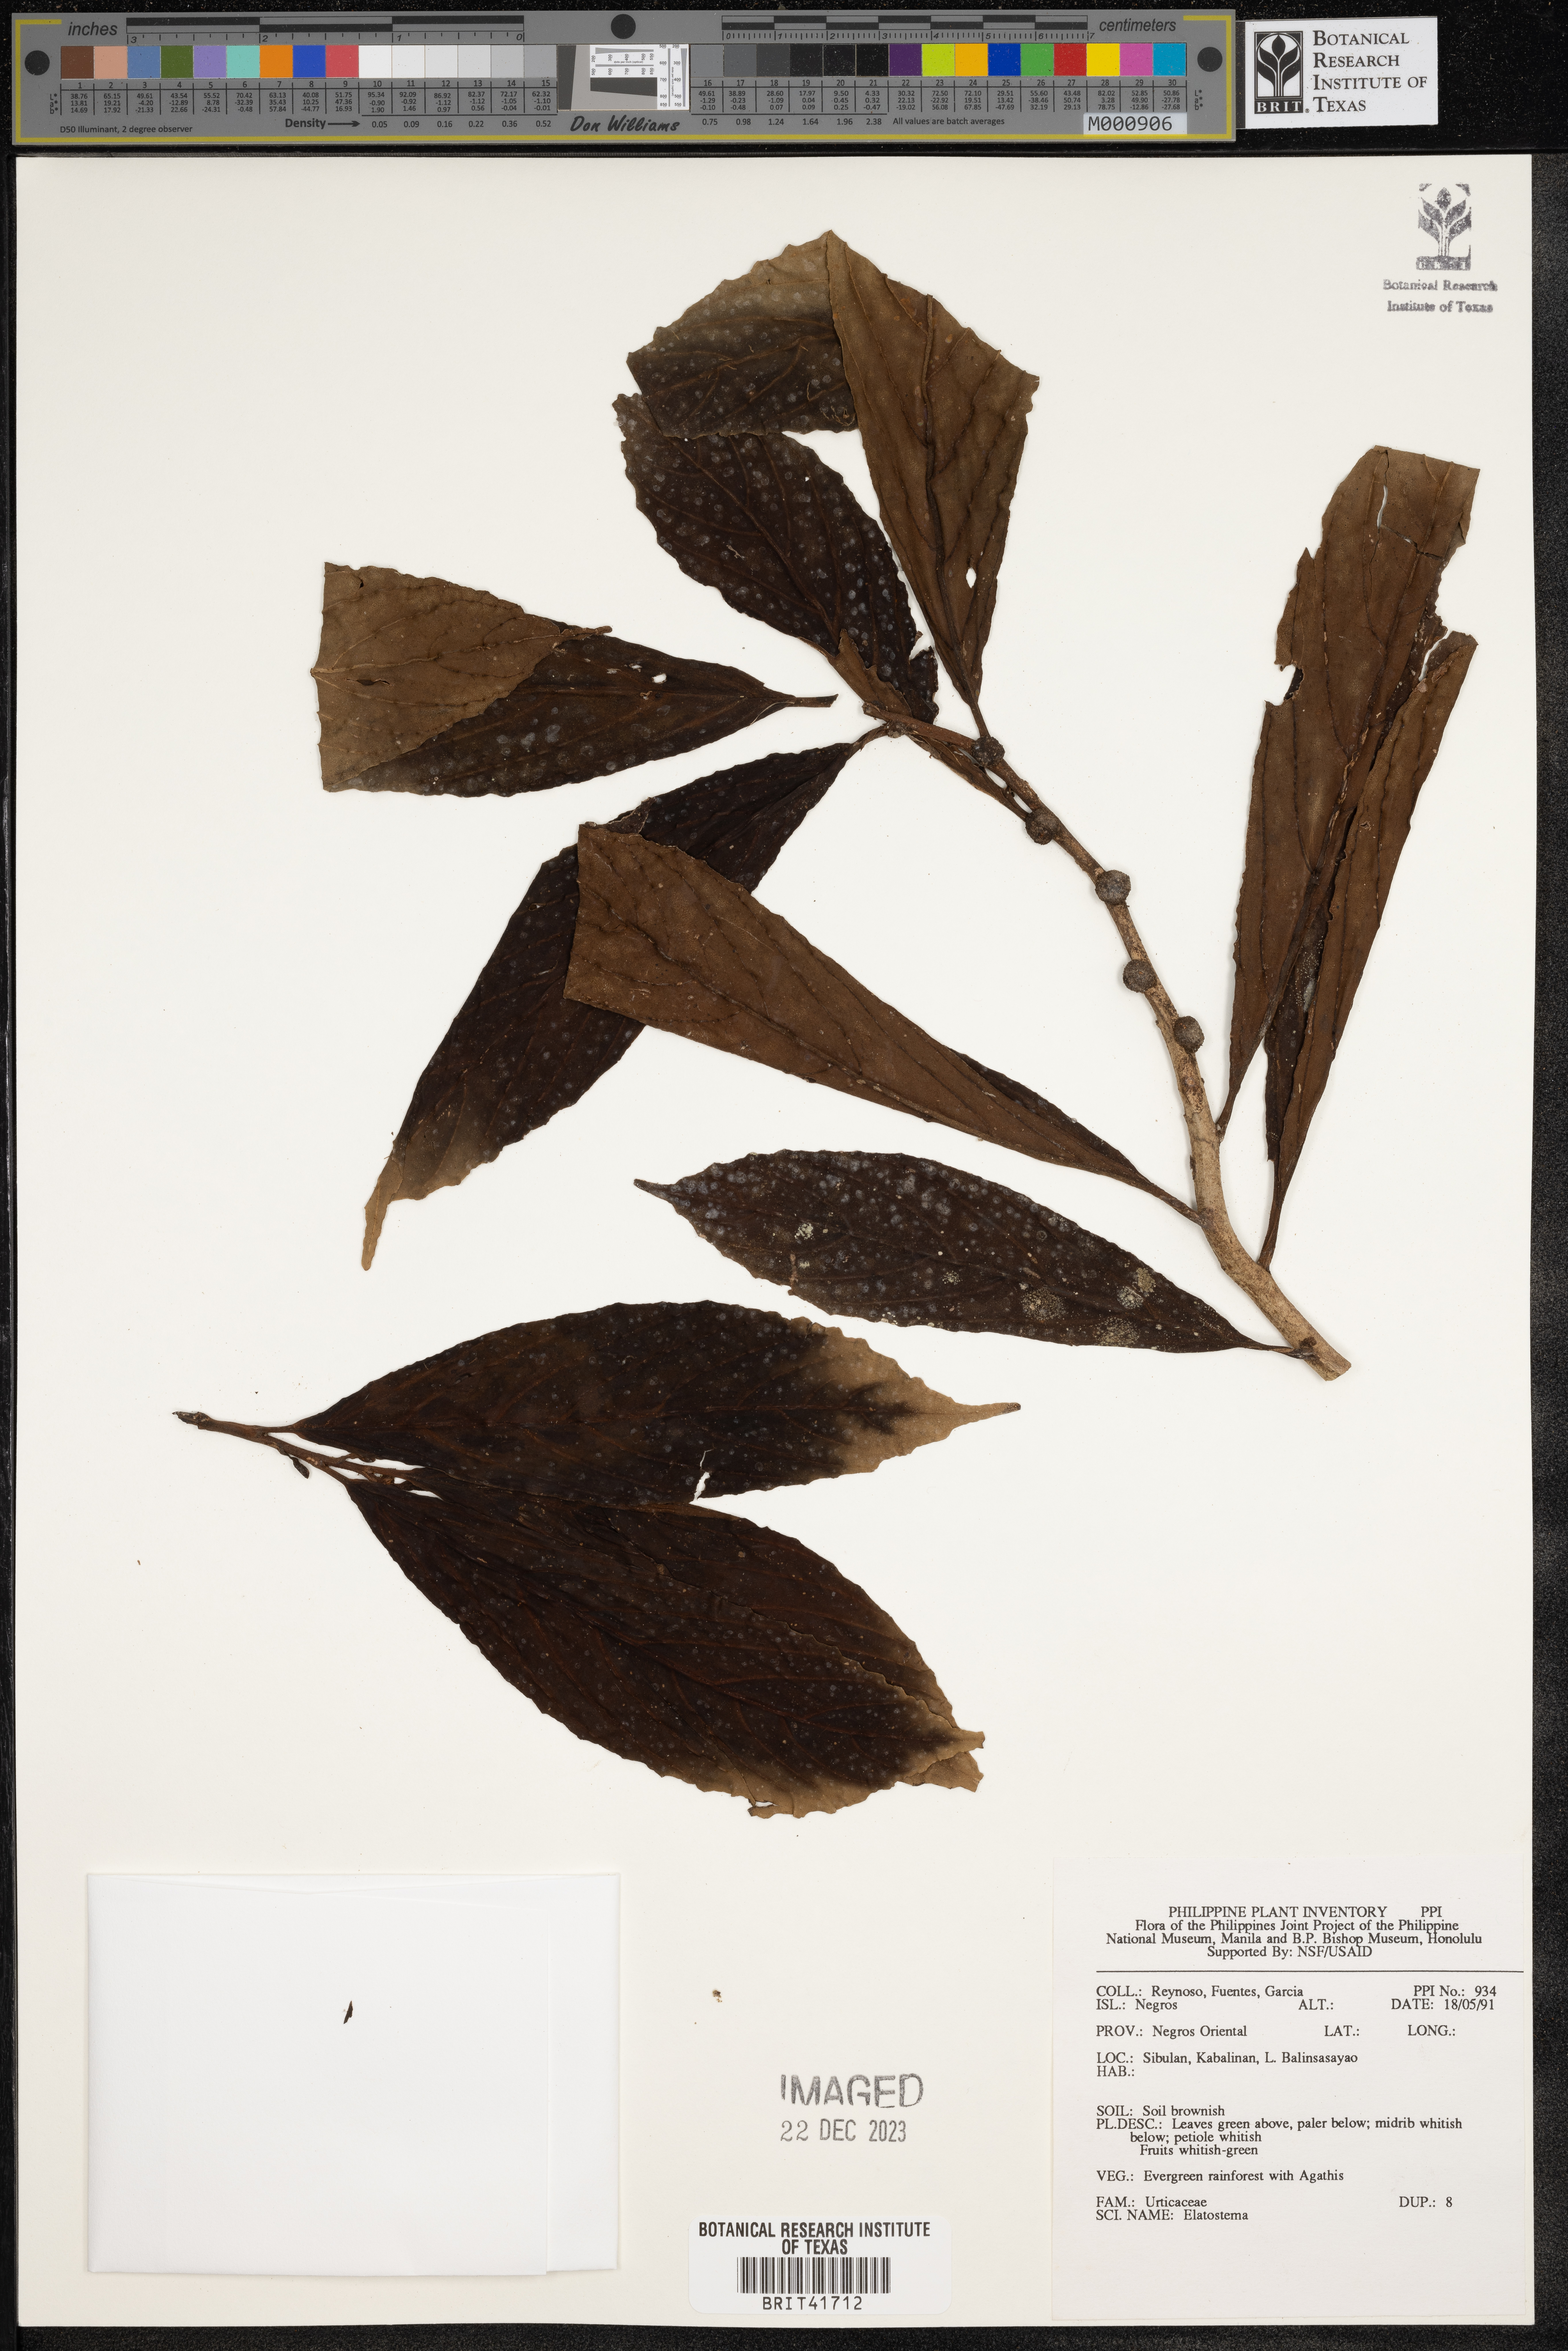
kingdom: Plantae
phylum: Tracheophyta
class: Magnoliopsida
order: Rosales
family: Urticaceae
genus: Elatostema
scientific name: Elatostema
